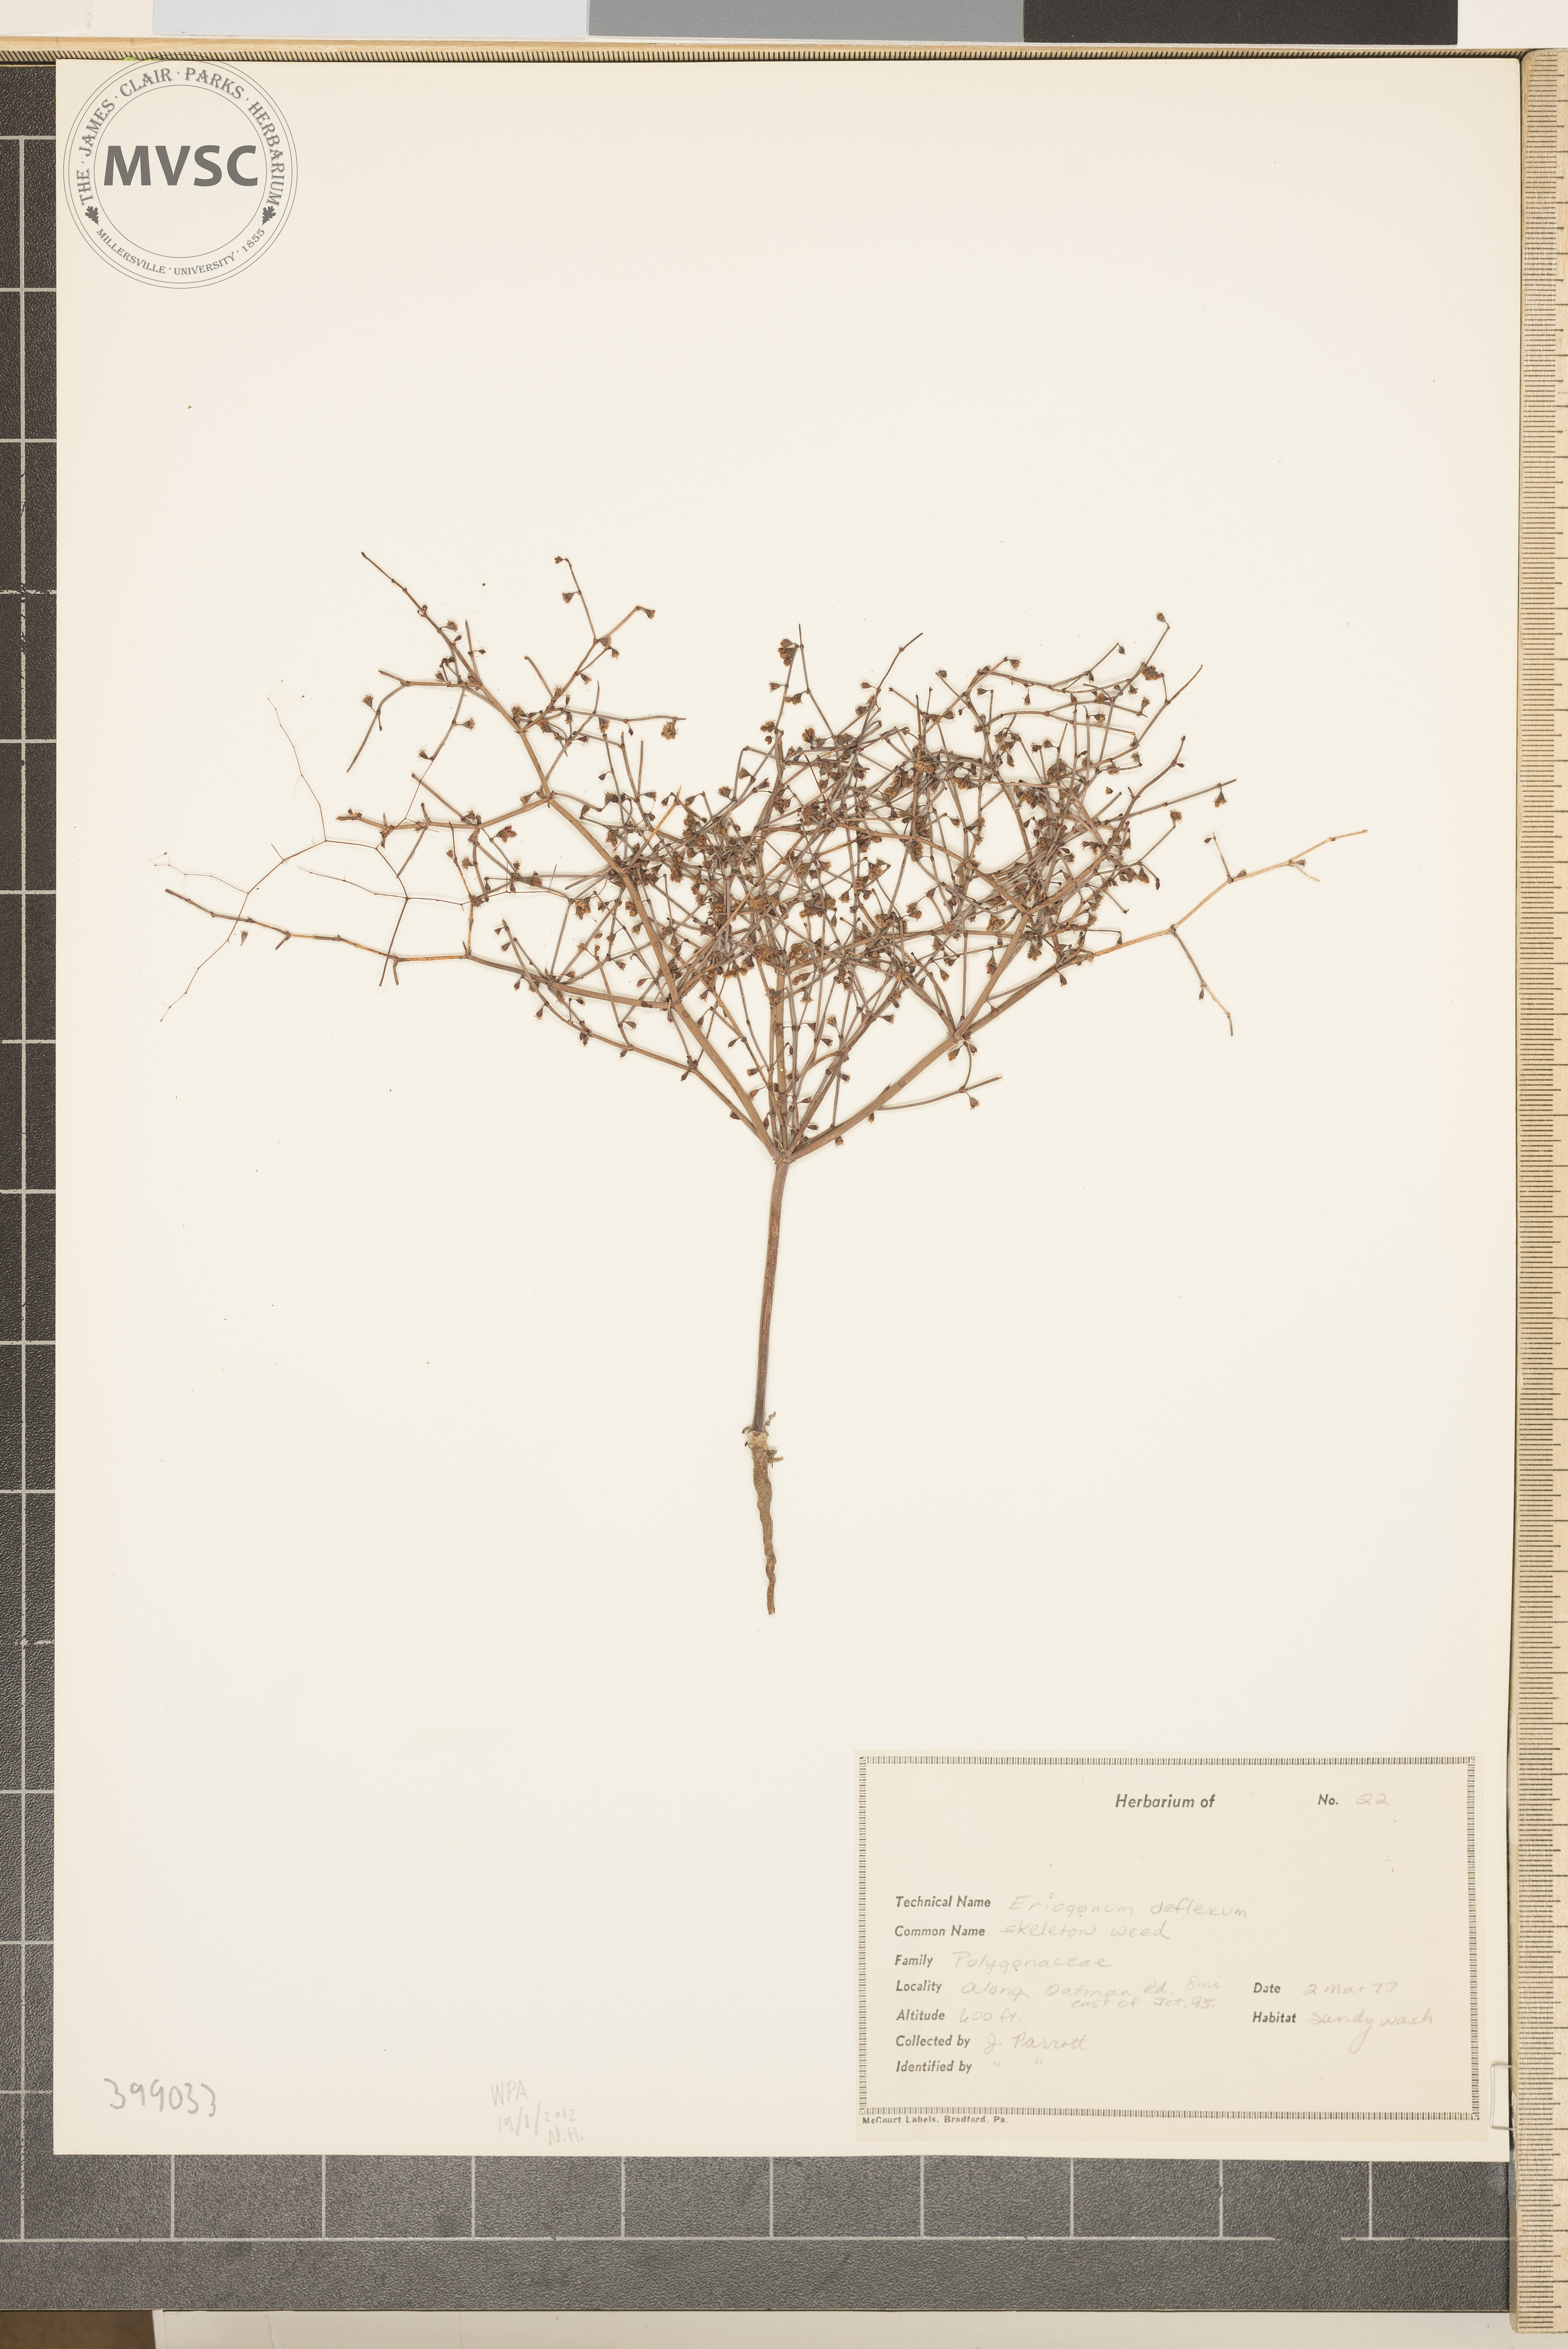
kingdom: Plantae
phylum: Tracheophyta
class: Magnoliopsida
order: Caryophyllales
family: Polygonaceae
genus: Eriogonum
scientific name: Eriogonum deflexum
